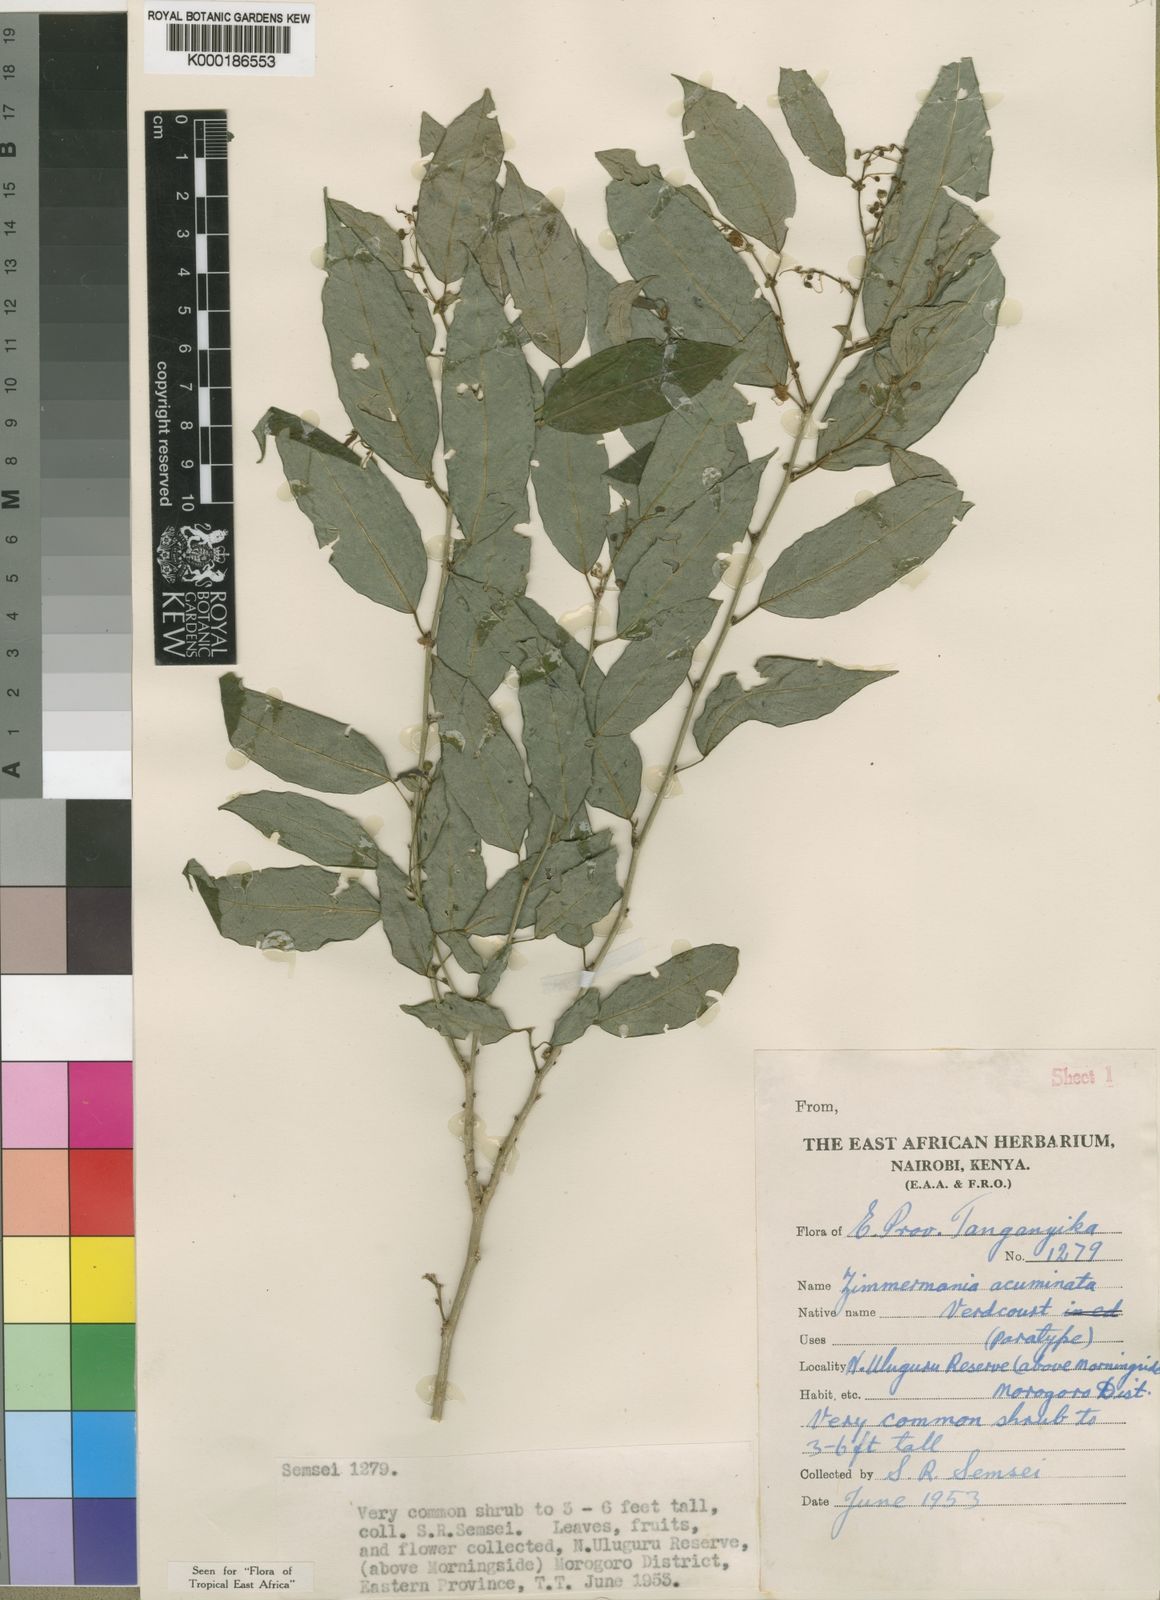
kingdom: Plantae
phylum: Tracheophyta
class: Magnoliopsida
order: Malpighiales
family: Phyllanthaceae
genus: Meineckia
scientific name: Meineckia acuminata
